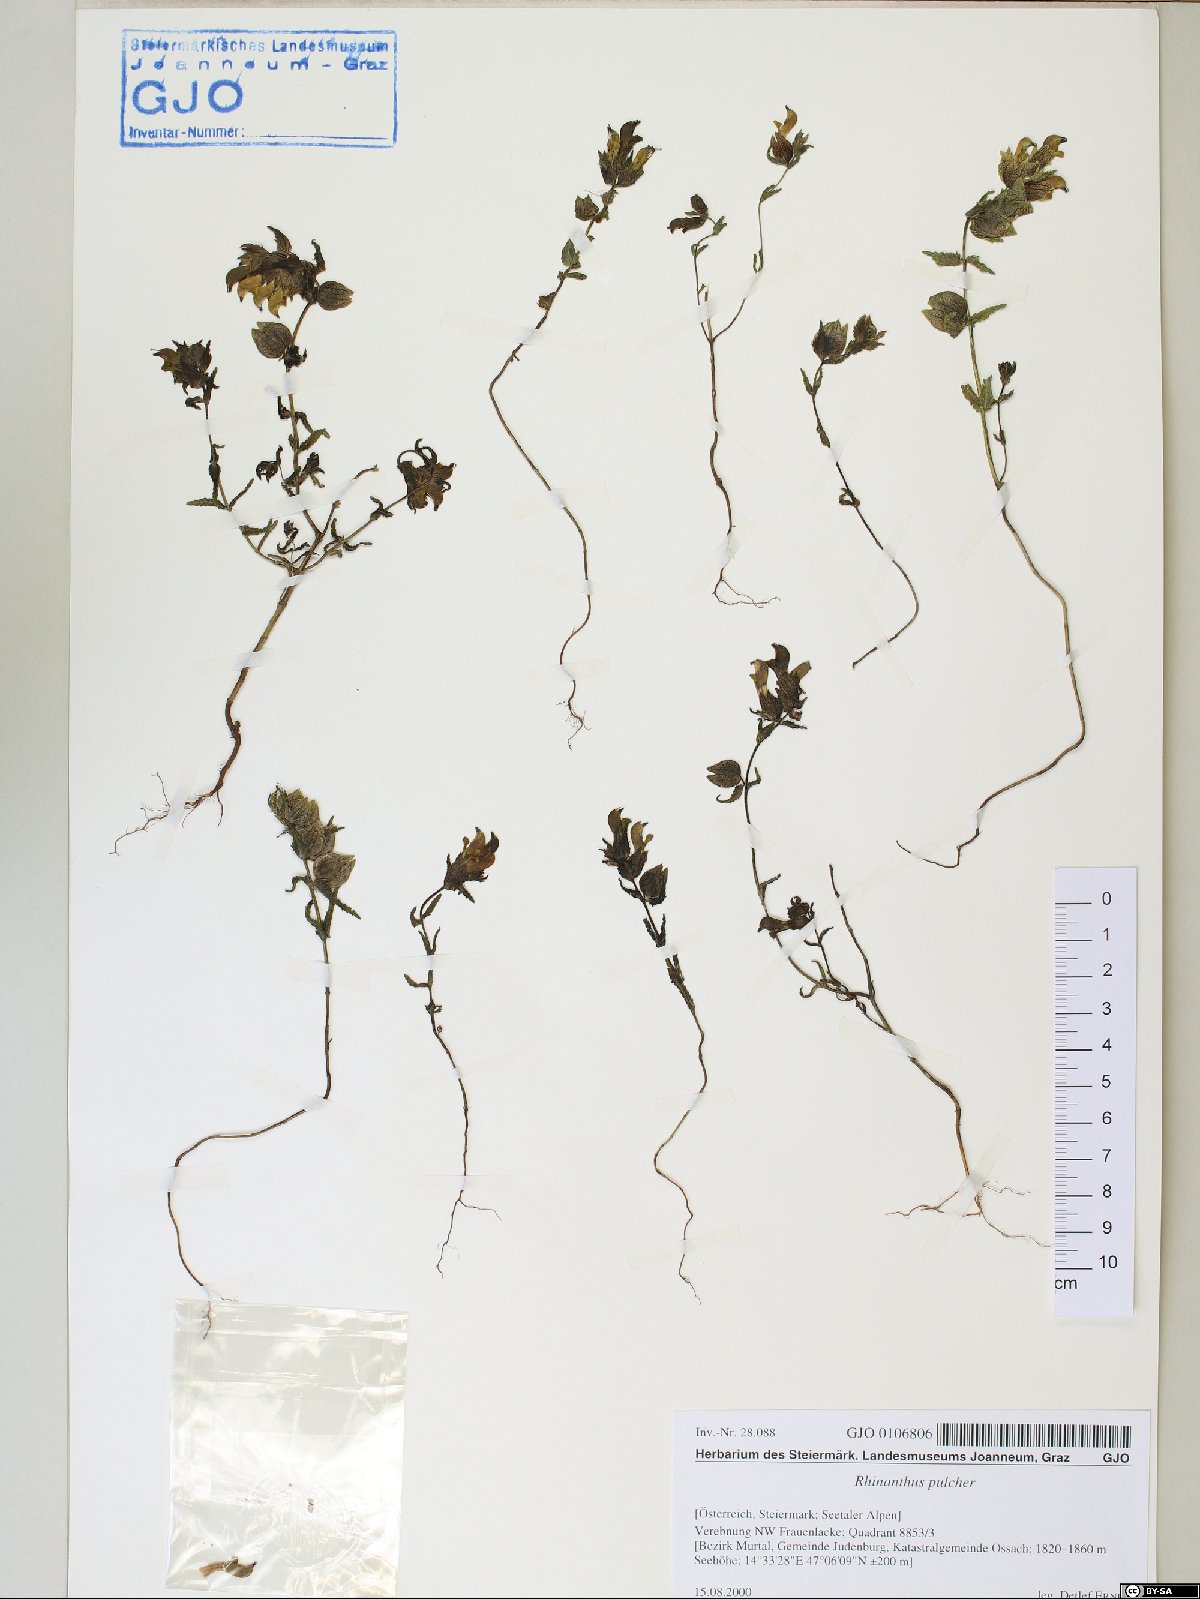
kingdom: Plantae
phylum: Tracheophyta
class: Magnoliopsida
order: Lamiales
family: Orobanchaceae
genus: Rhinanthus
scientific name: Rhinanthus riphaeus
